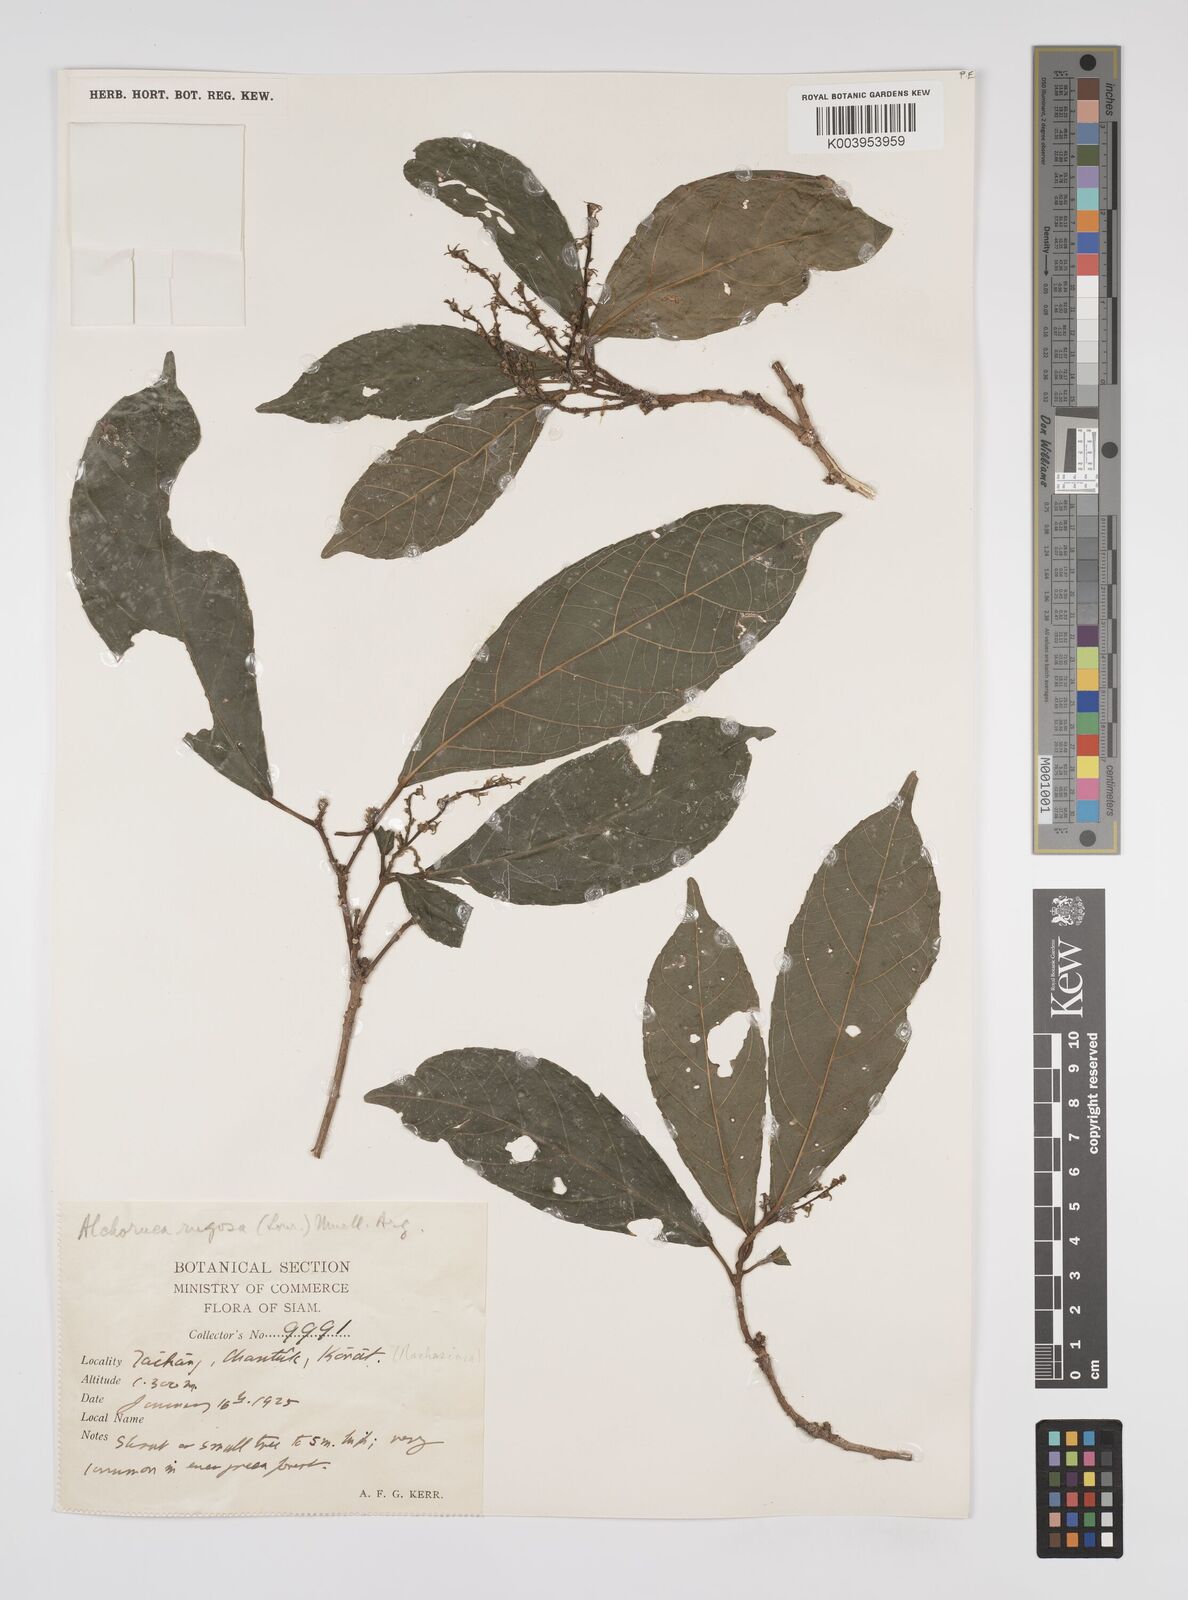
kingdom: Plantae
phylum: Tracheophyta
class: Magnoliopsida
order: Malpighiales
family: Euphorbiaceae
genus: Alchornea
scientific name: Alchornea rugosa
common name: Alchorntree
